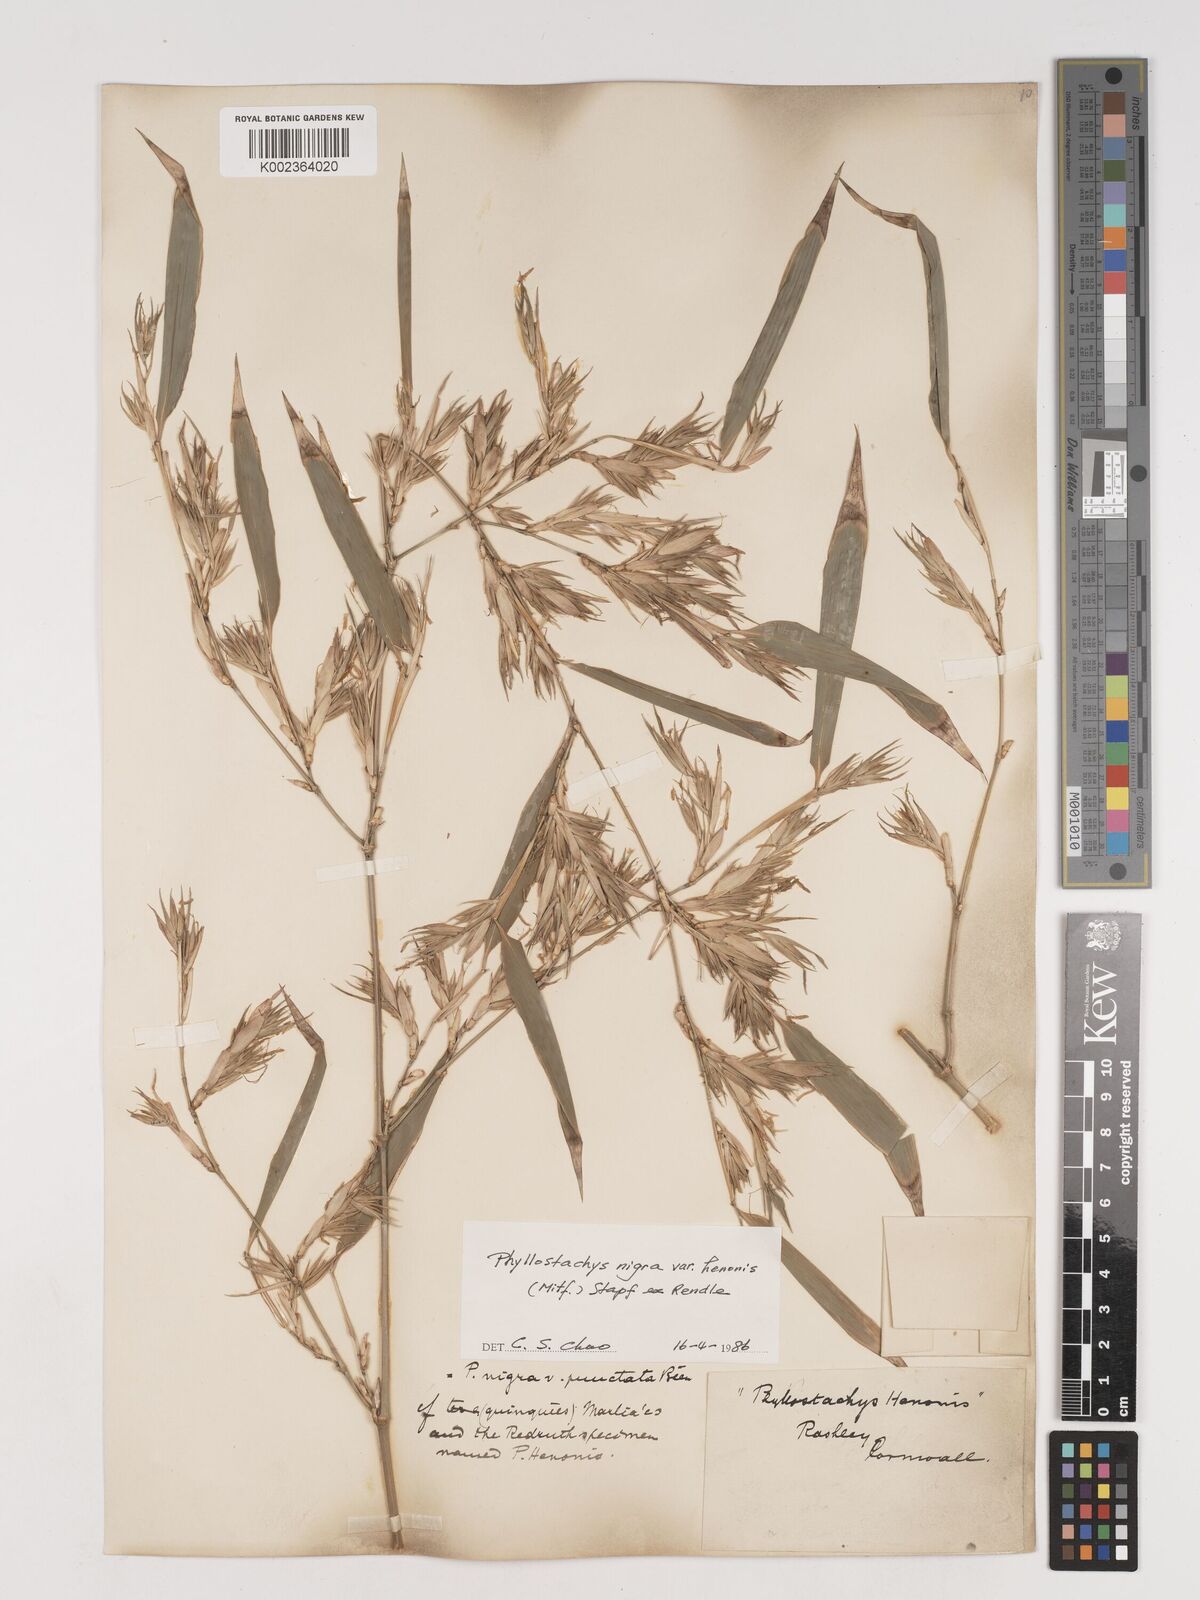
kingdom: Plantae
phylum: Tracheophyta
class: Liliopsida
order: Poales
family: Poaceae
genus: Phyllostachys
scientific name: Phyllostachys nigra
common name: Black bamboo
